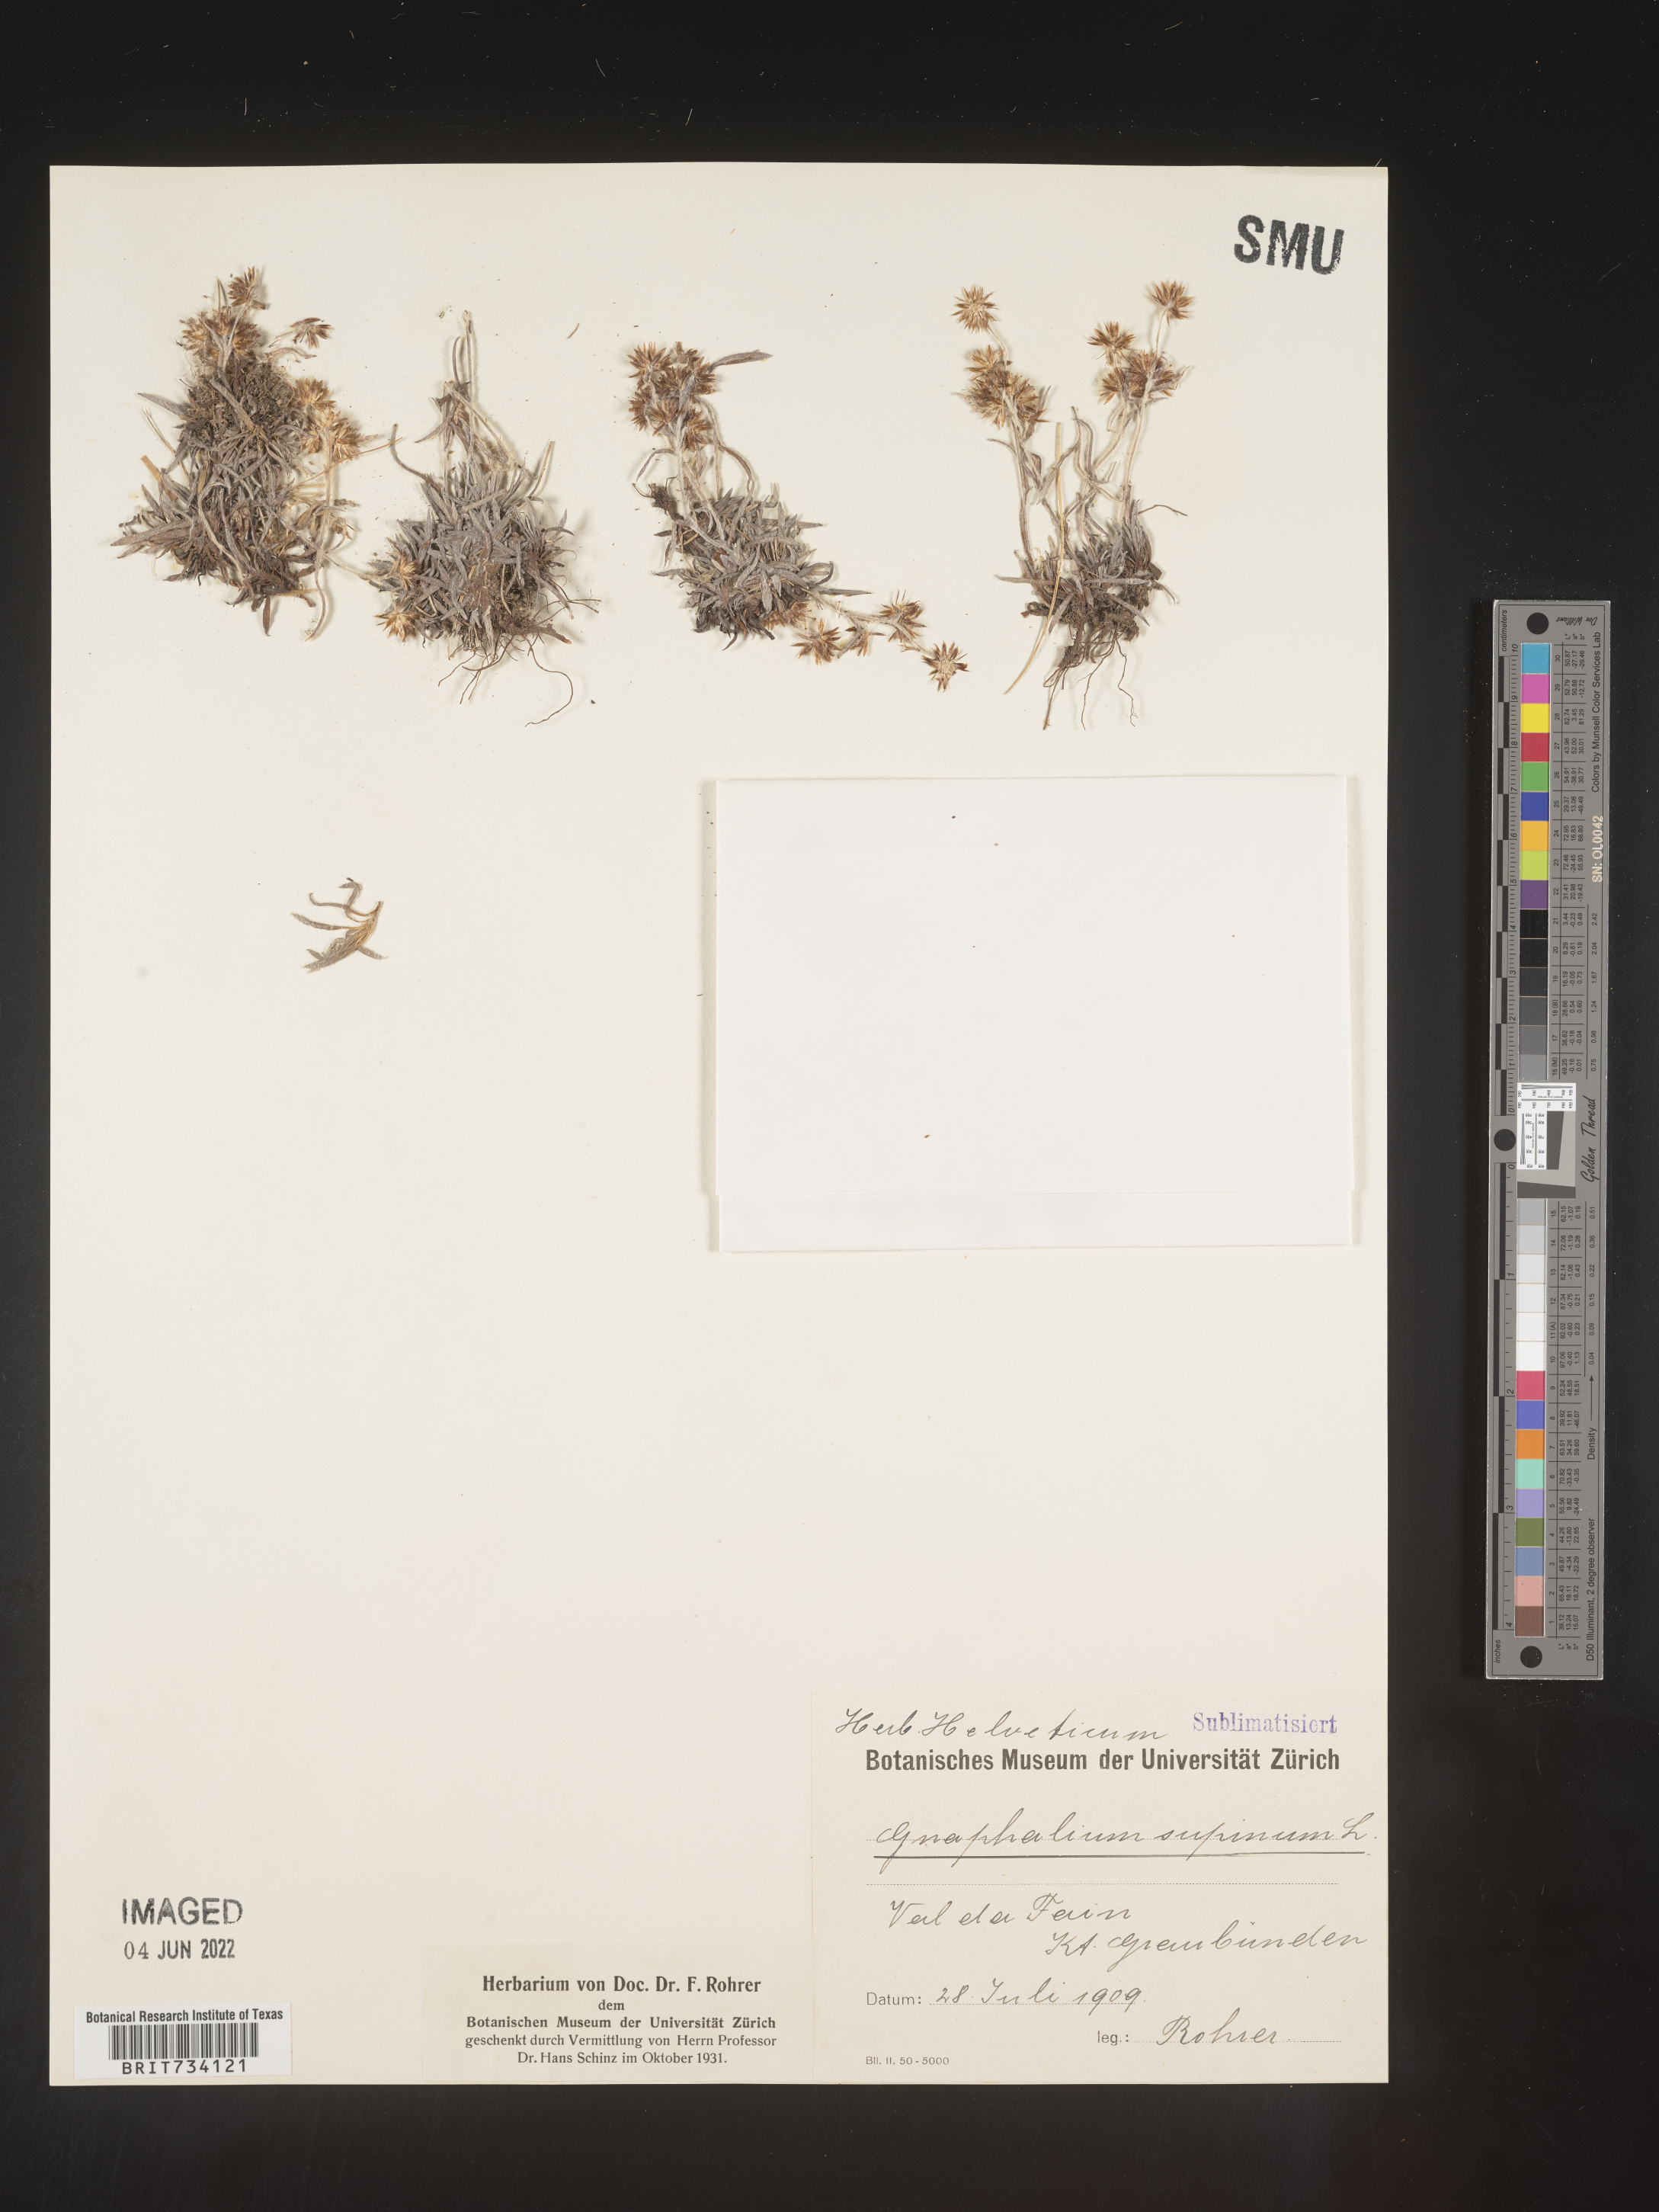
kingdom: Plantae
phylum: Tracheophyta
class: Magnoliopsida
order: Asterales
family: Asteraceae
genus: Omalotheca
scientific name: Omalotheca supina
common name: Alpine arctic-cudweed
